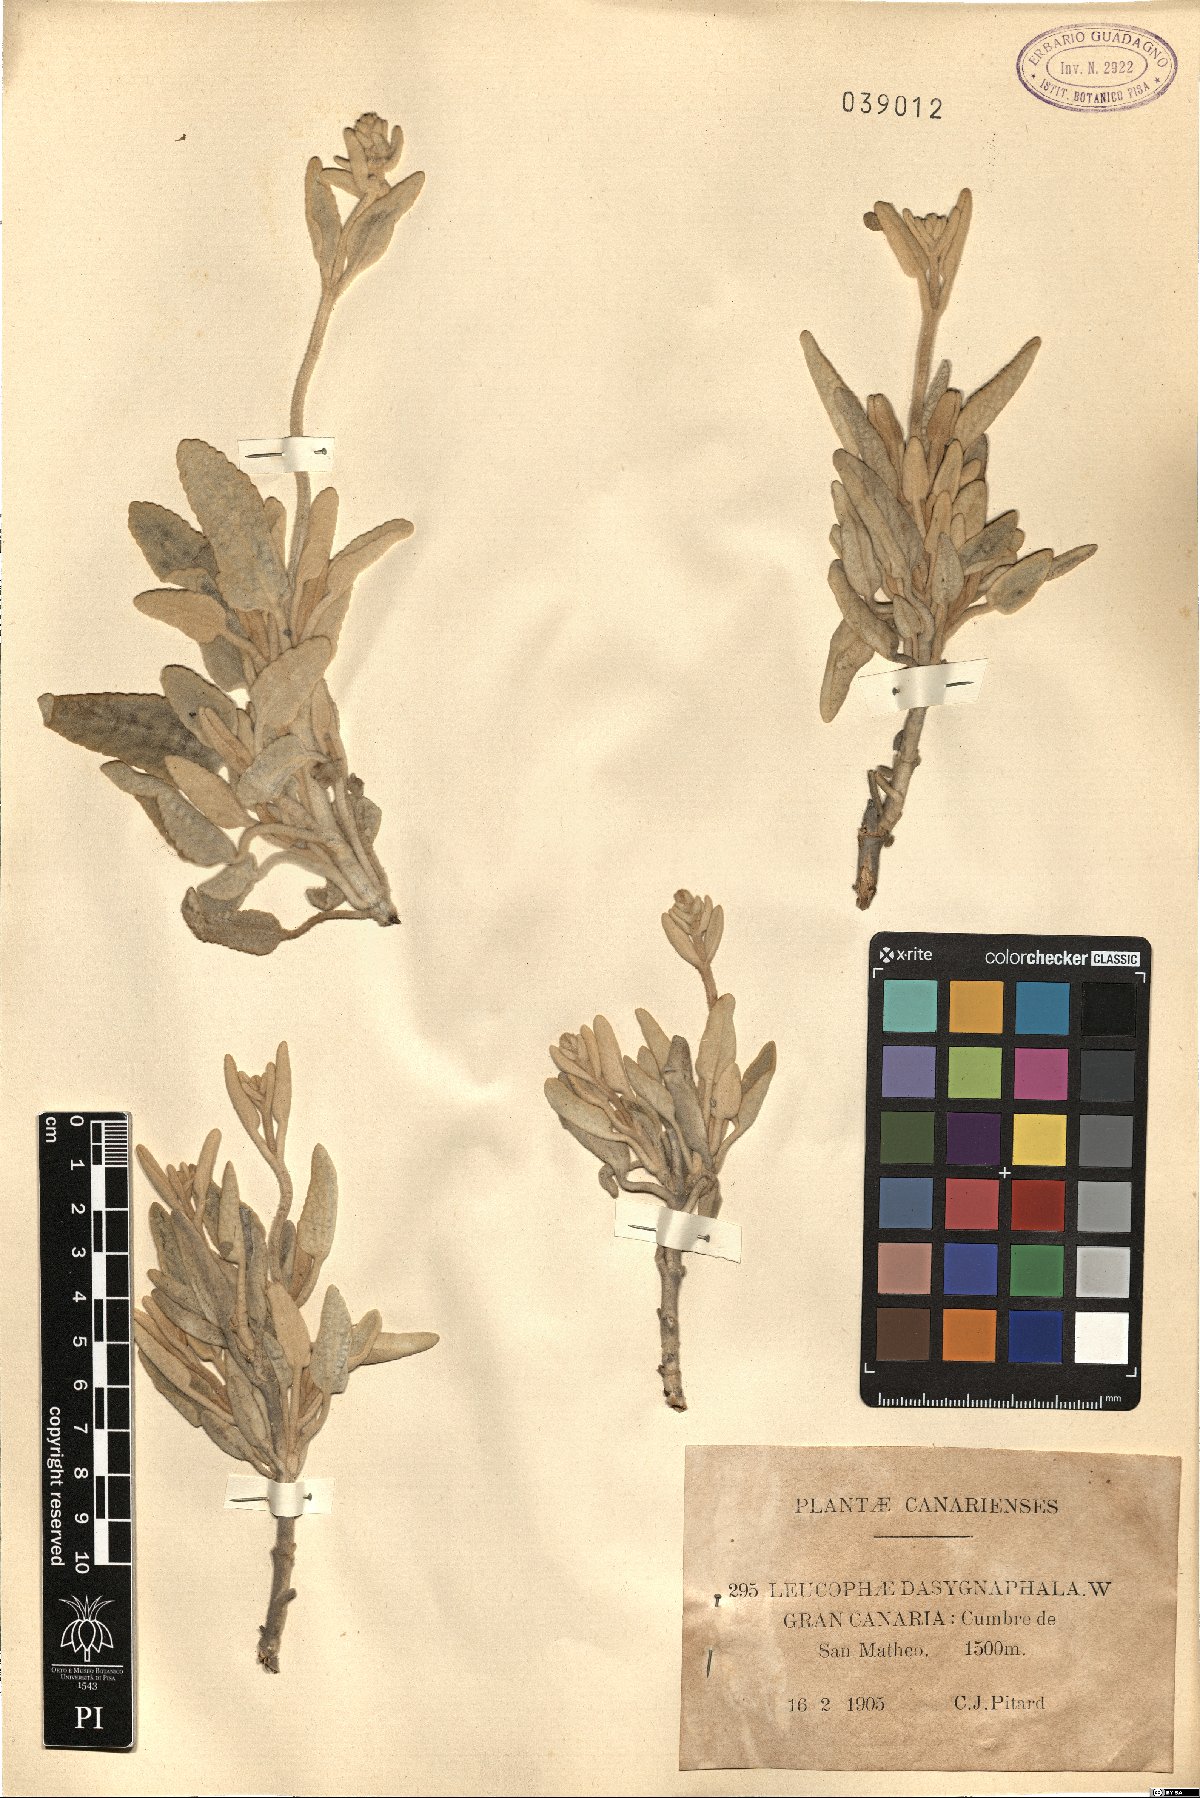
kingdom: Plantae
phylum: Tracheophyta
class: Magnoliopsida
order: Lamiales
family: Lamiaceae
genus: Sideritis
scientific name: Sideritis dasygnaphala
